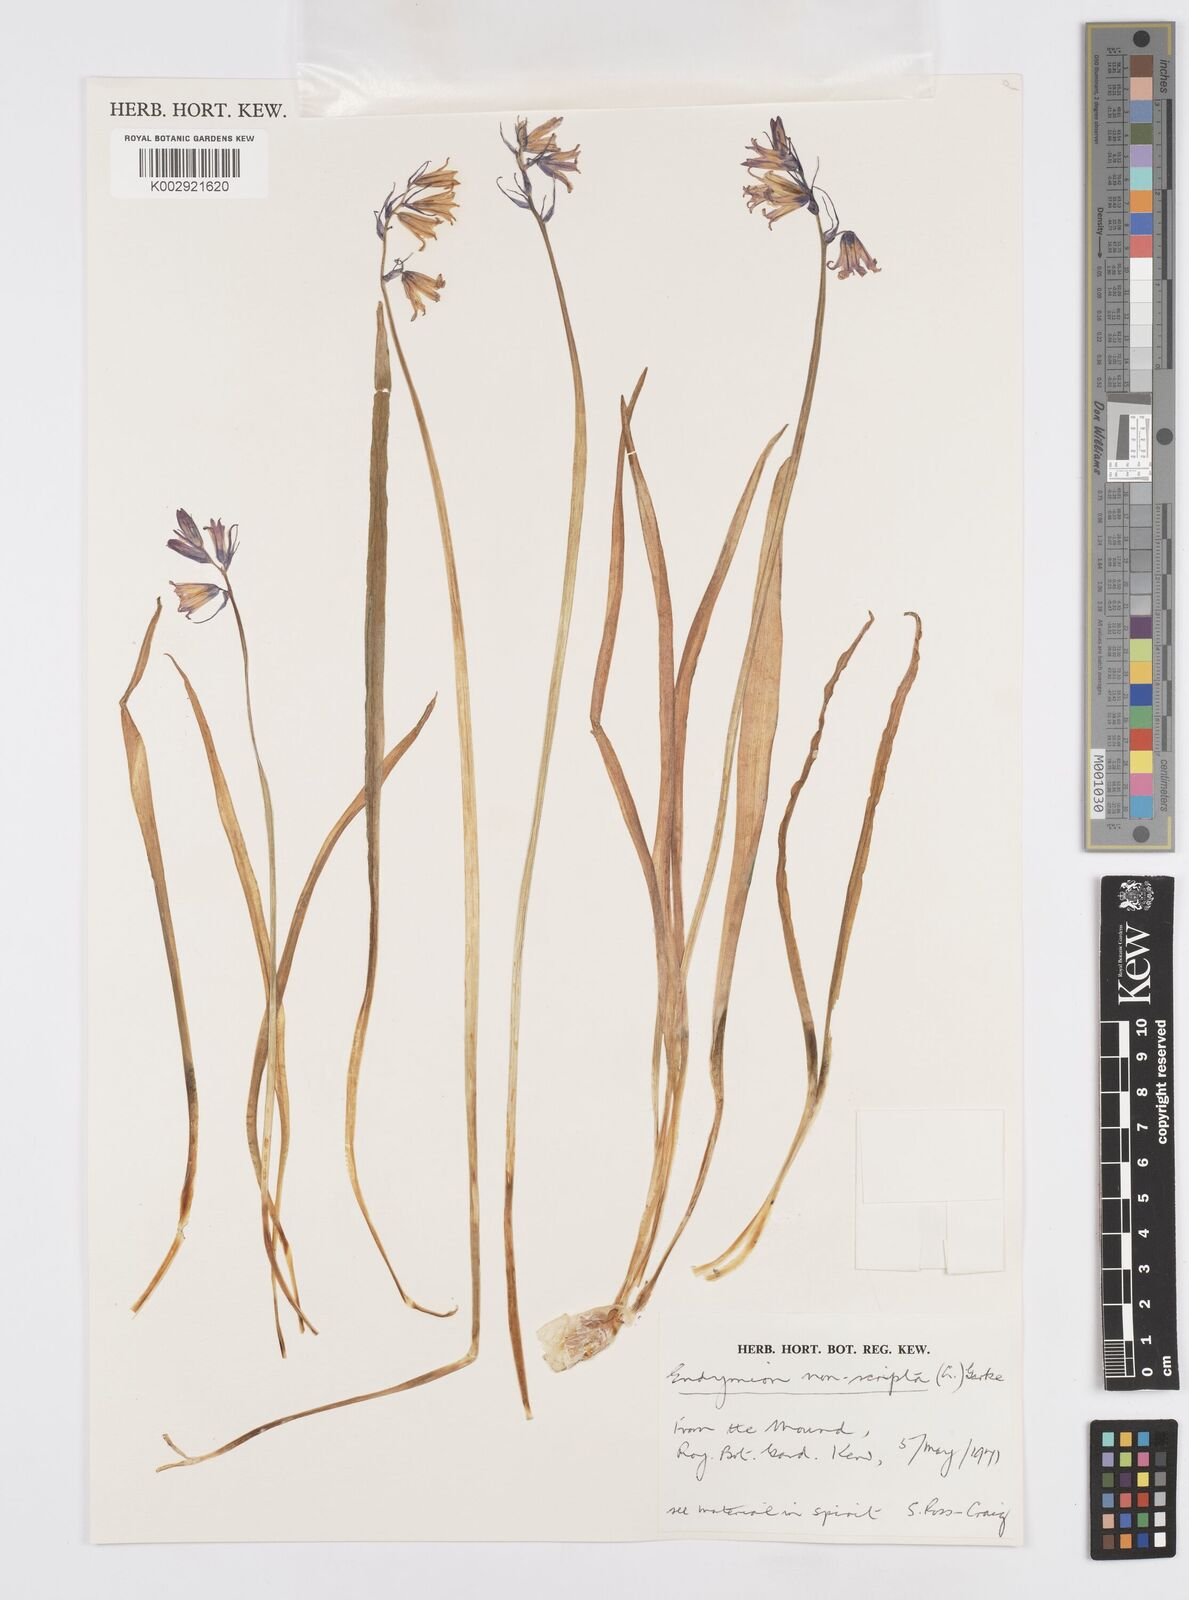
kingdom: Plantae
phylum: Tracheophyta
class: Liliopsida
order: Asparagales
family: Asparagaceae
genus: Hyacinthoides
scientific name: Hyacinthoides non-scripta
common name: Bluebell
